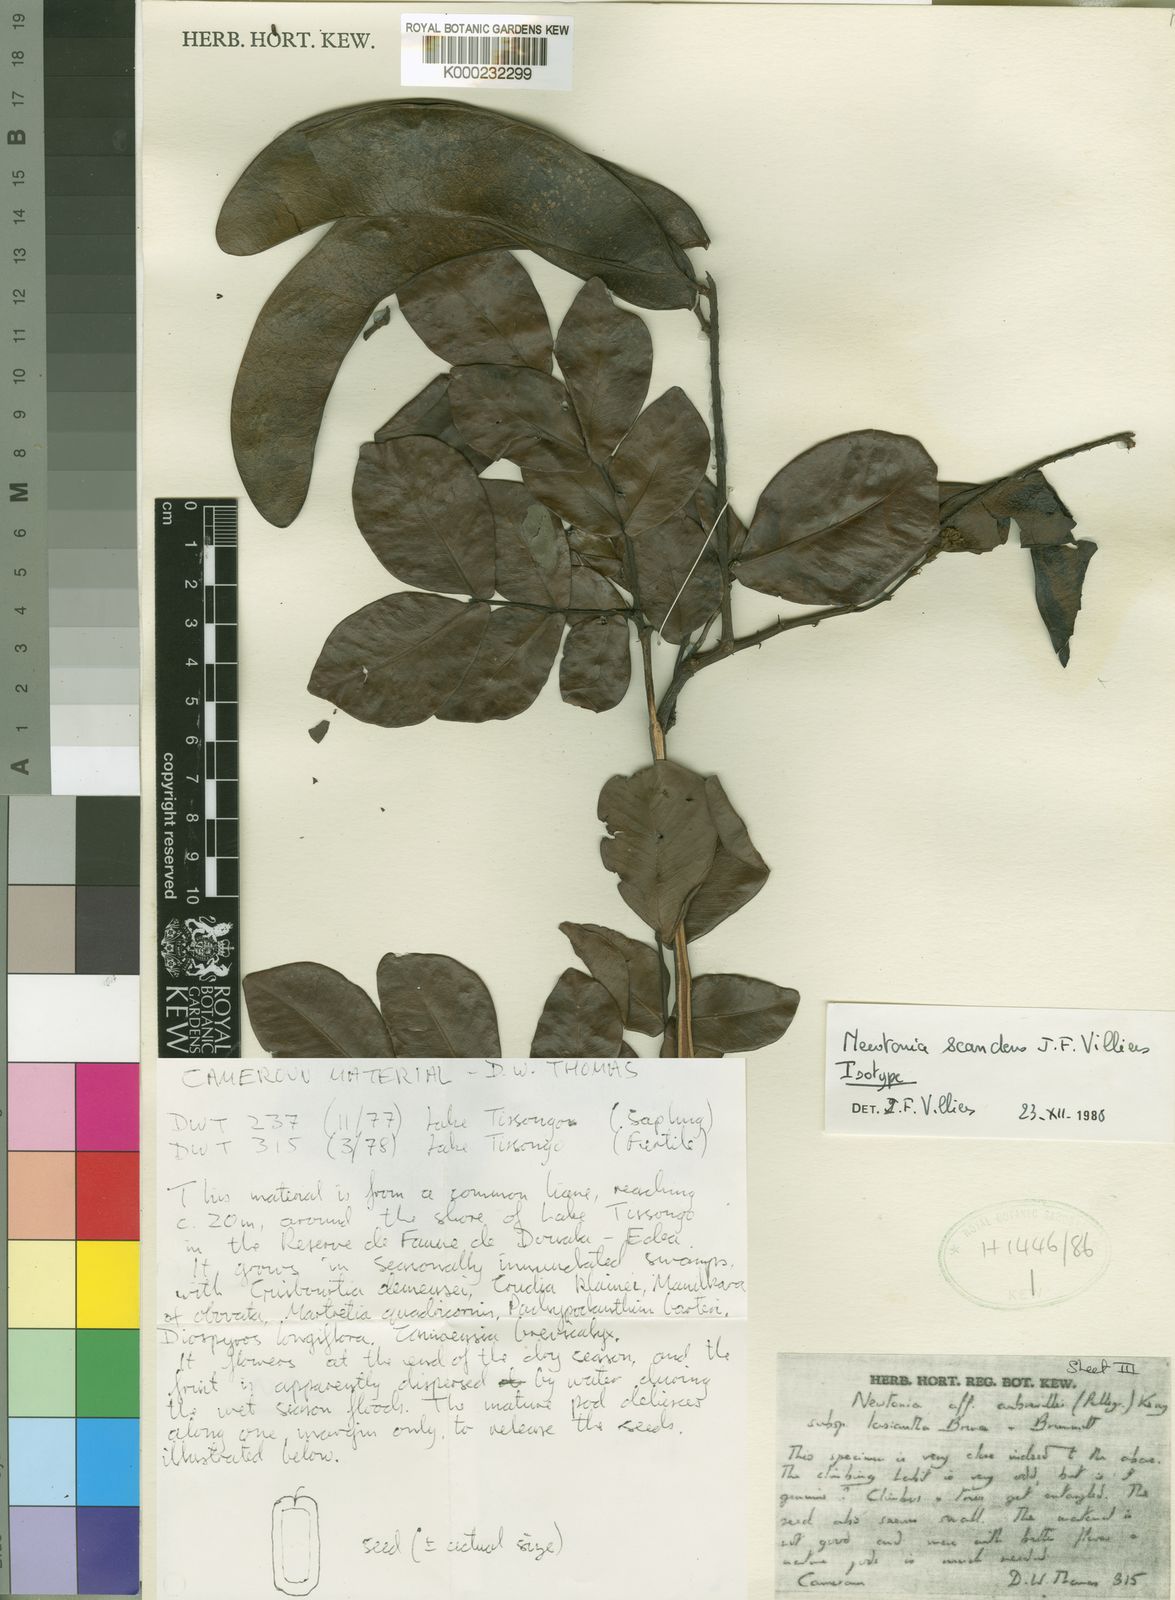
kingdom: Plantae
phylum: Tracheophyta
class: Magnoliopsida
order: Fabales
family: Fabaceae
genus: Newtonia
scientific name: Newtonia scandens
